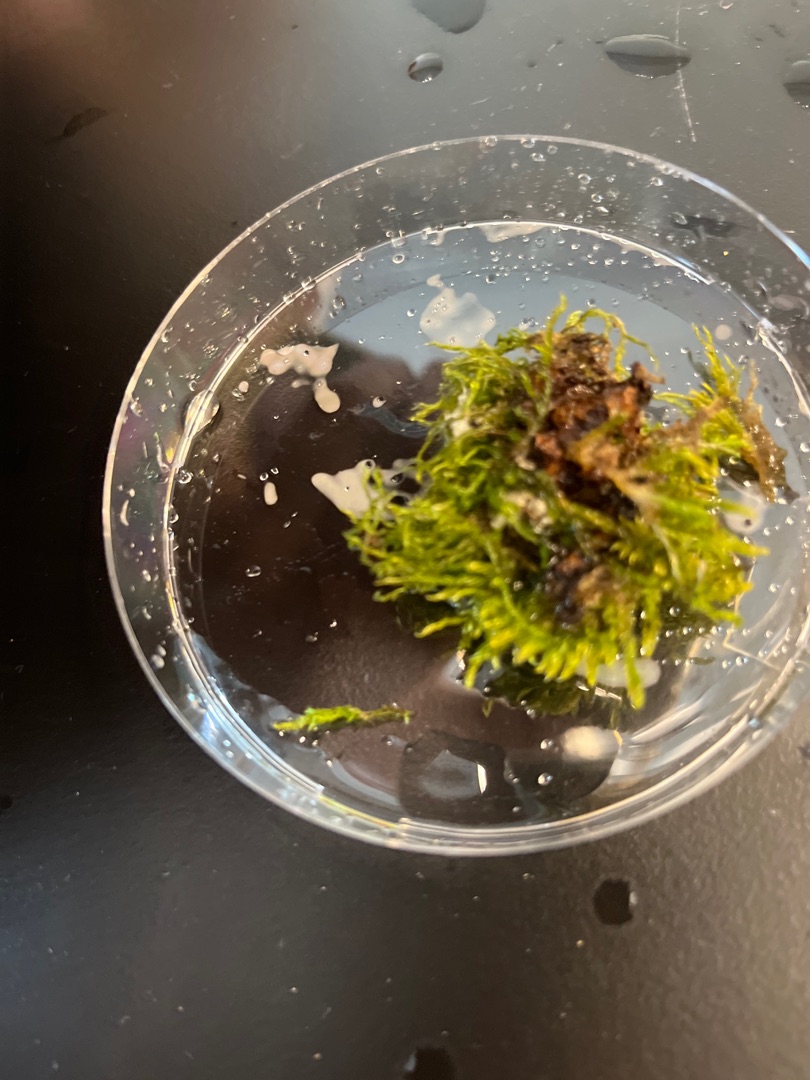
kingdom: Plantae
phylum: Bryophyta
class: Bryopsida
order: Hypnales
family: Hypnaceae
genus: Hypnum
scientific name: Hypnum
